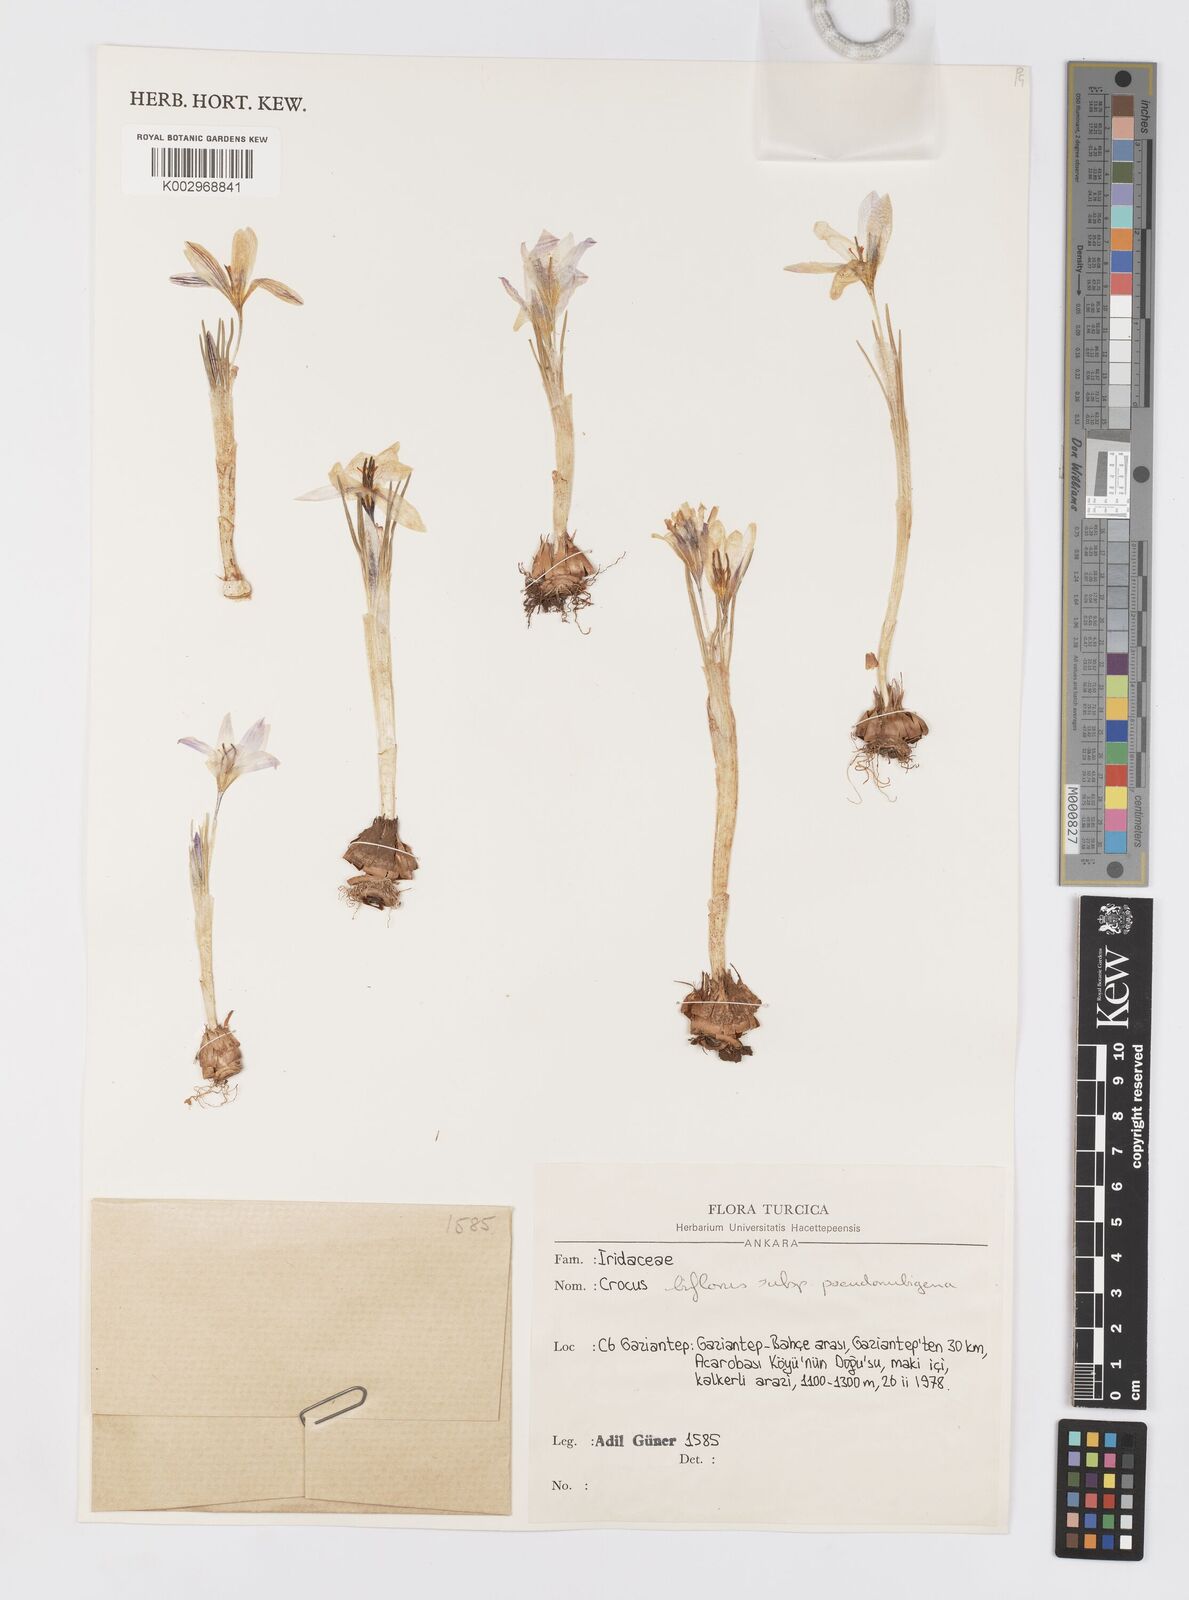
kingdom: Plantae
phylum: Tracheophyta
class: Liliopsida
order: Asparagales
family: Iridaceae
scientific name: Iridaceae
